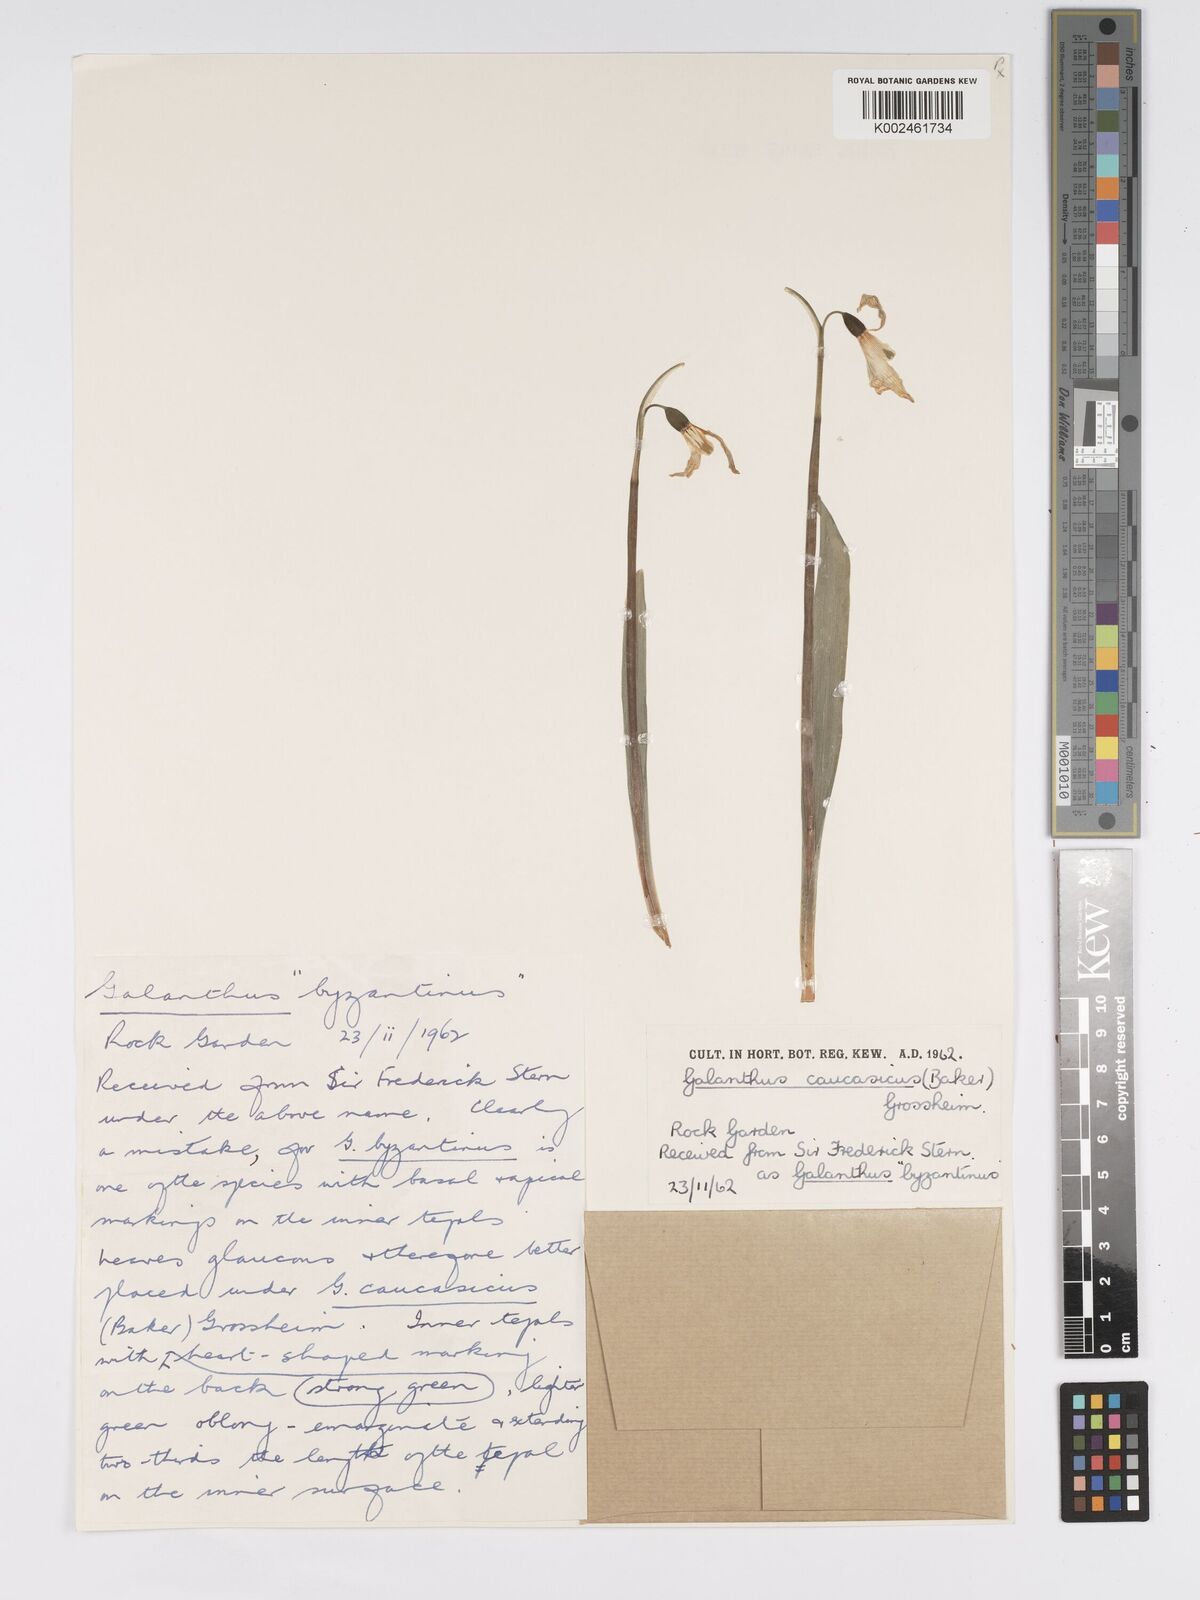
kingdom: Plantae
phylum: Tracheophyta
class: Liliopsida
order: Asparagales
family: Amaryllidaceae
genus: Galanthus
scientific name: Galanthus alpinus
